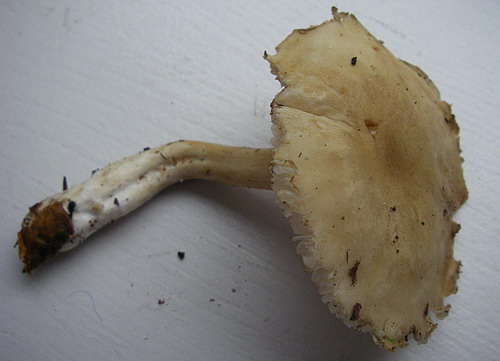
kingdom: Fungi
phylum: Basidiomycota
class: Agaricomycetes
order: Agaricales
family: Tricholomataceae
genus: Tricholoma
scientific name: Tricholoma lascivum
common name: stinkende ridderhat
